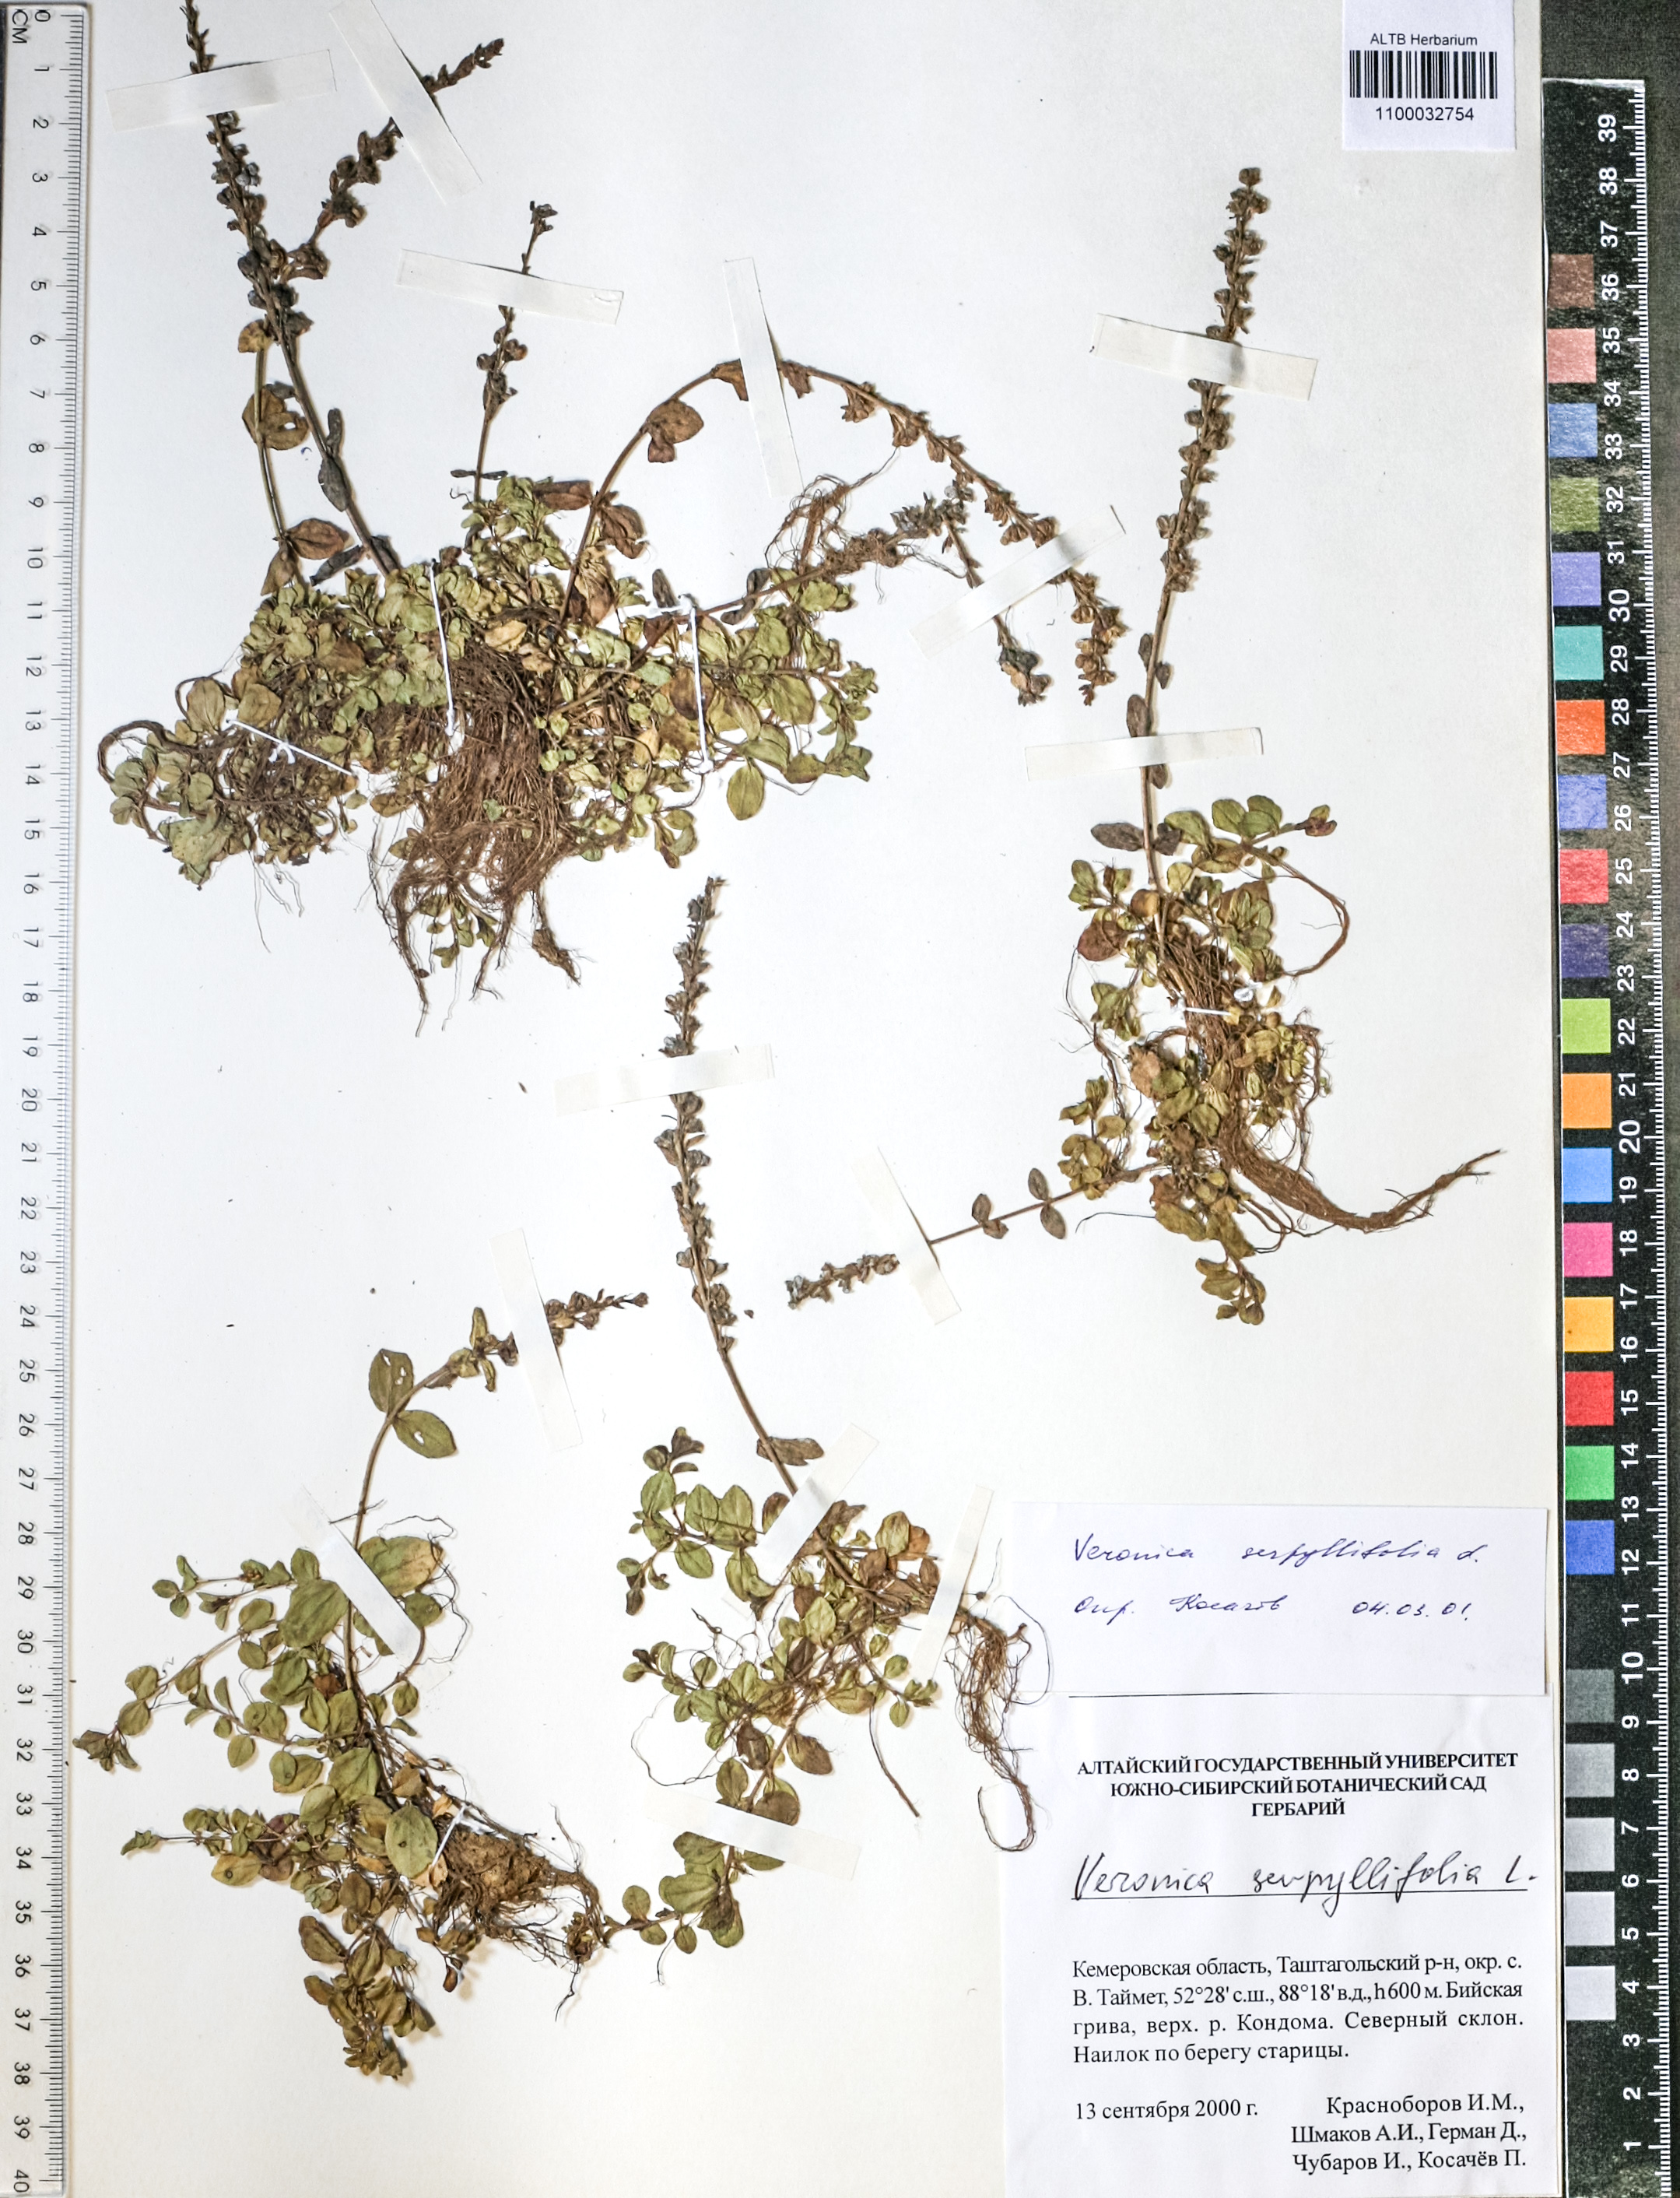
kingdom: Plantae
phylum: Tracheophyta
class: Magnoliopsida
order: Lamiales
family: Plantaginaceae
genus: Veronica
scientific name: Veronica serpyllifolia
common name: Thyme-leaved speedwell
